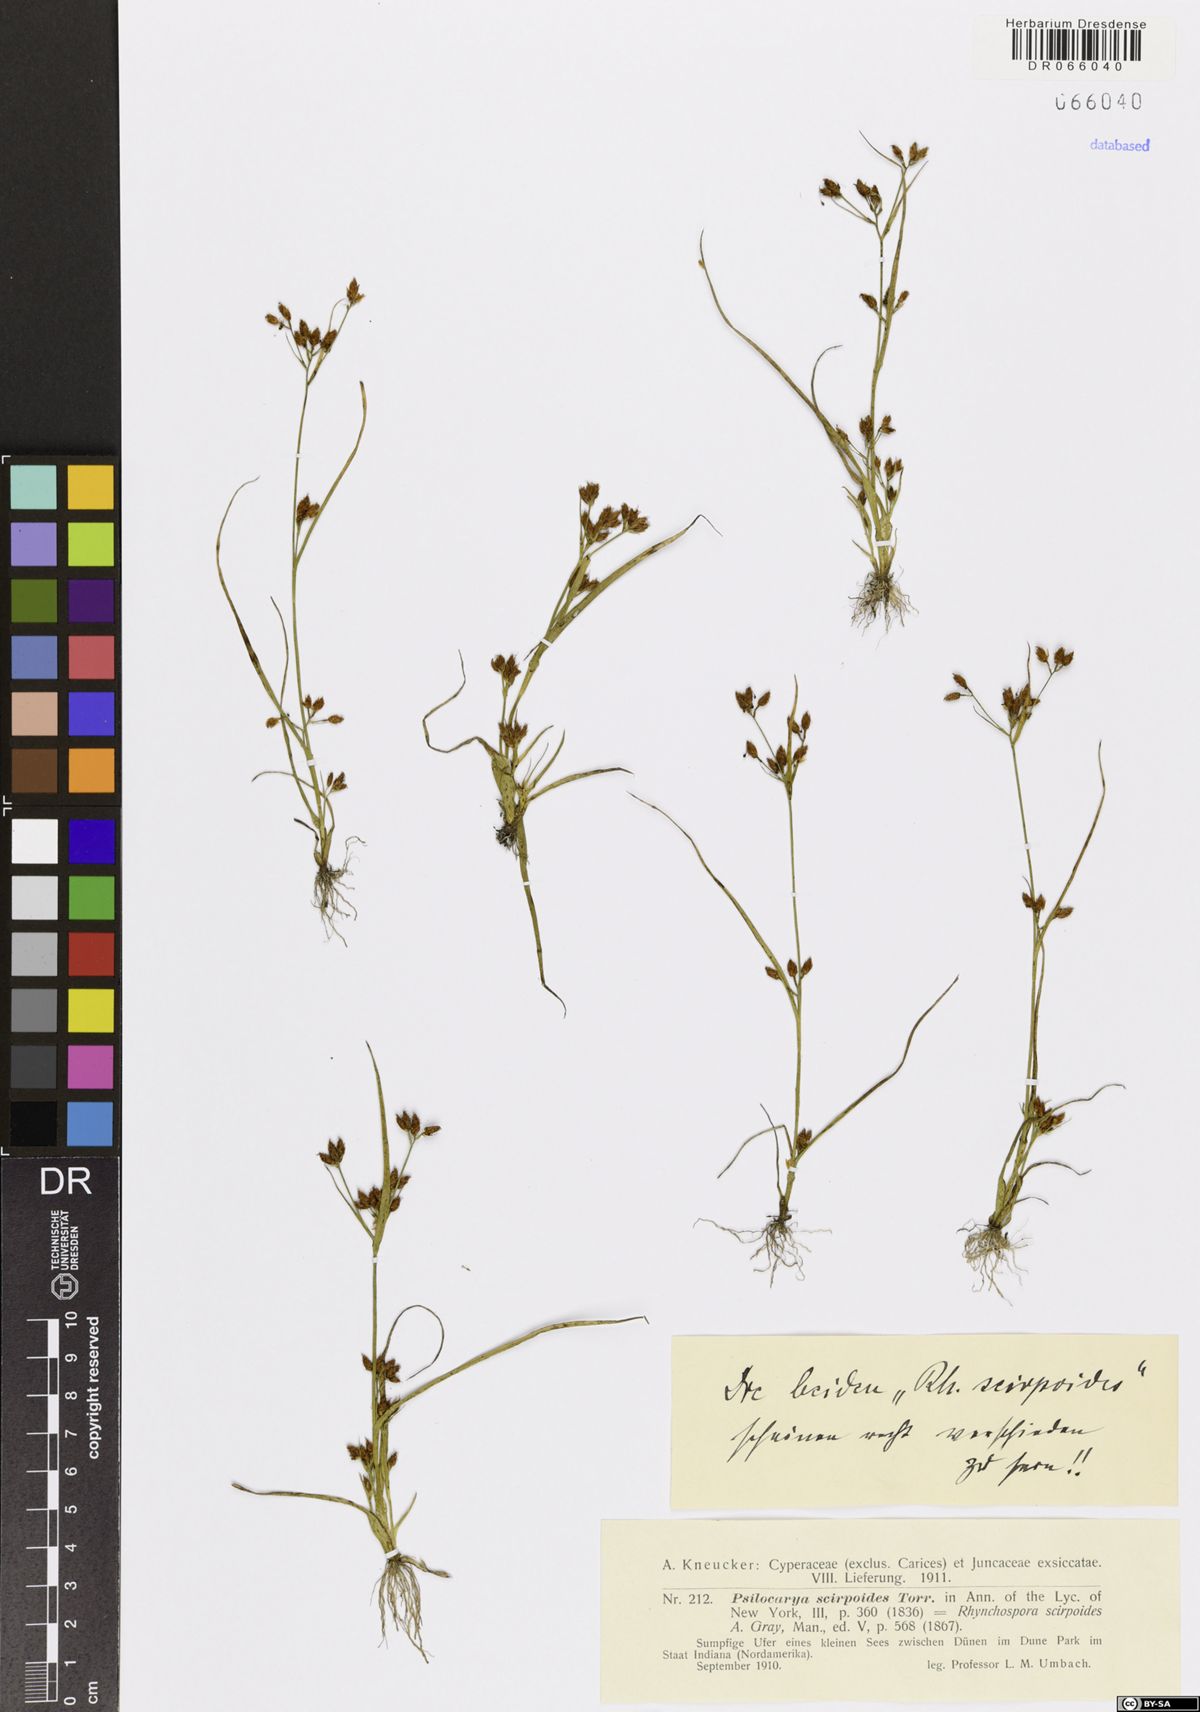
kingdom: Plantae
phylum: Tracheophyta
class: Liliopsida
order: Poales
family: Cyperaceae
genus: Rhynchospora
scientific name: Rhynchospora scirpoides
